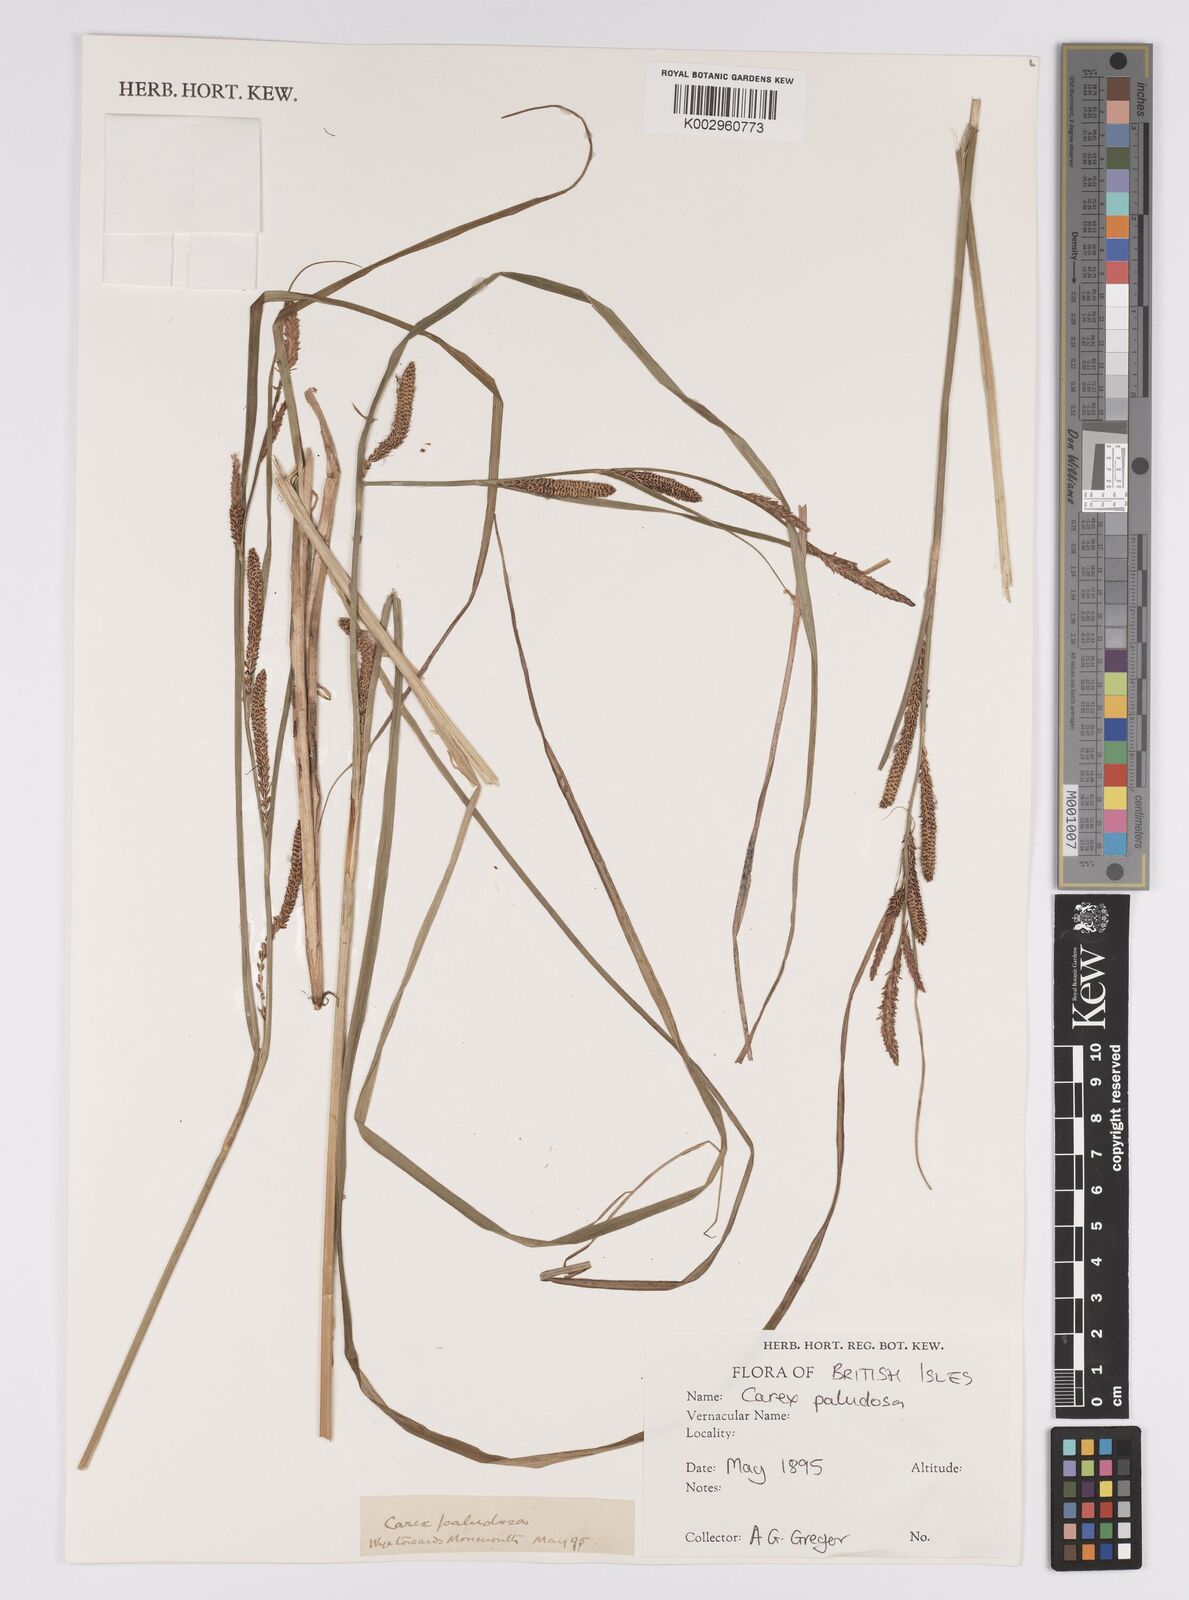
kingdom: Plantae
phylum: Tracheophyta
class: Liliopsida
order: Poales
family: Cyperaceae
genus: Carex
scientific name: Carex acutiformis
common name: Lesser pond-sedge
